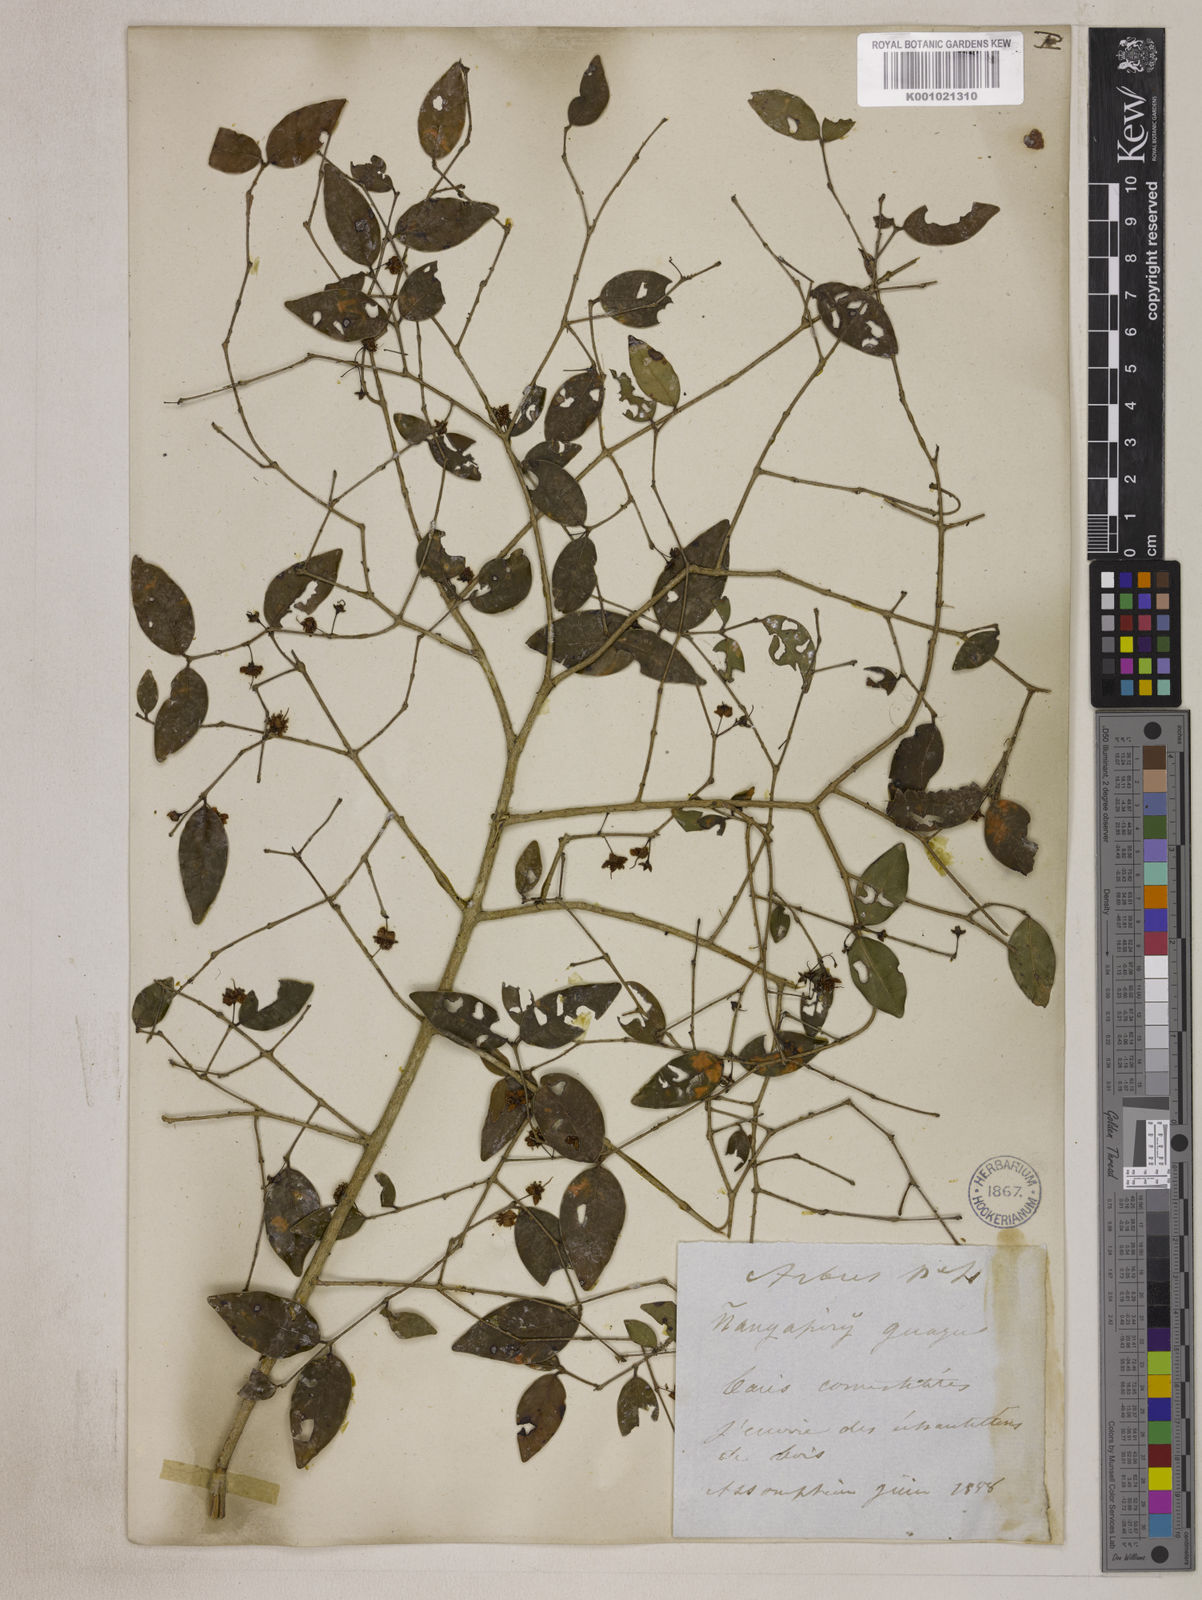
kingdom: Plantae
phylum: Tracheophyta
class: Magnoliopsida
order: Myrtales
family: Myrtaceae
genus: Eugenia
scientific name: Eugenia uniflora
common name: Surinam cherry
